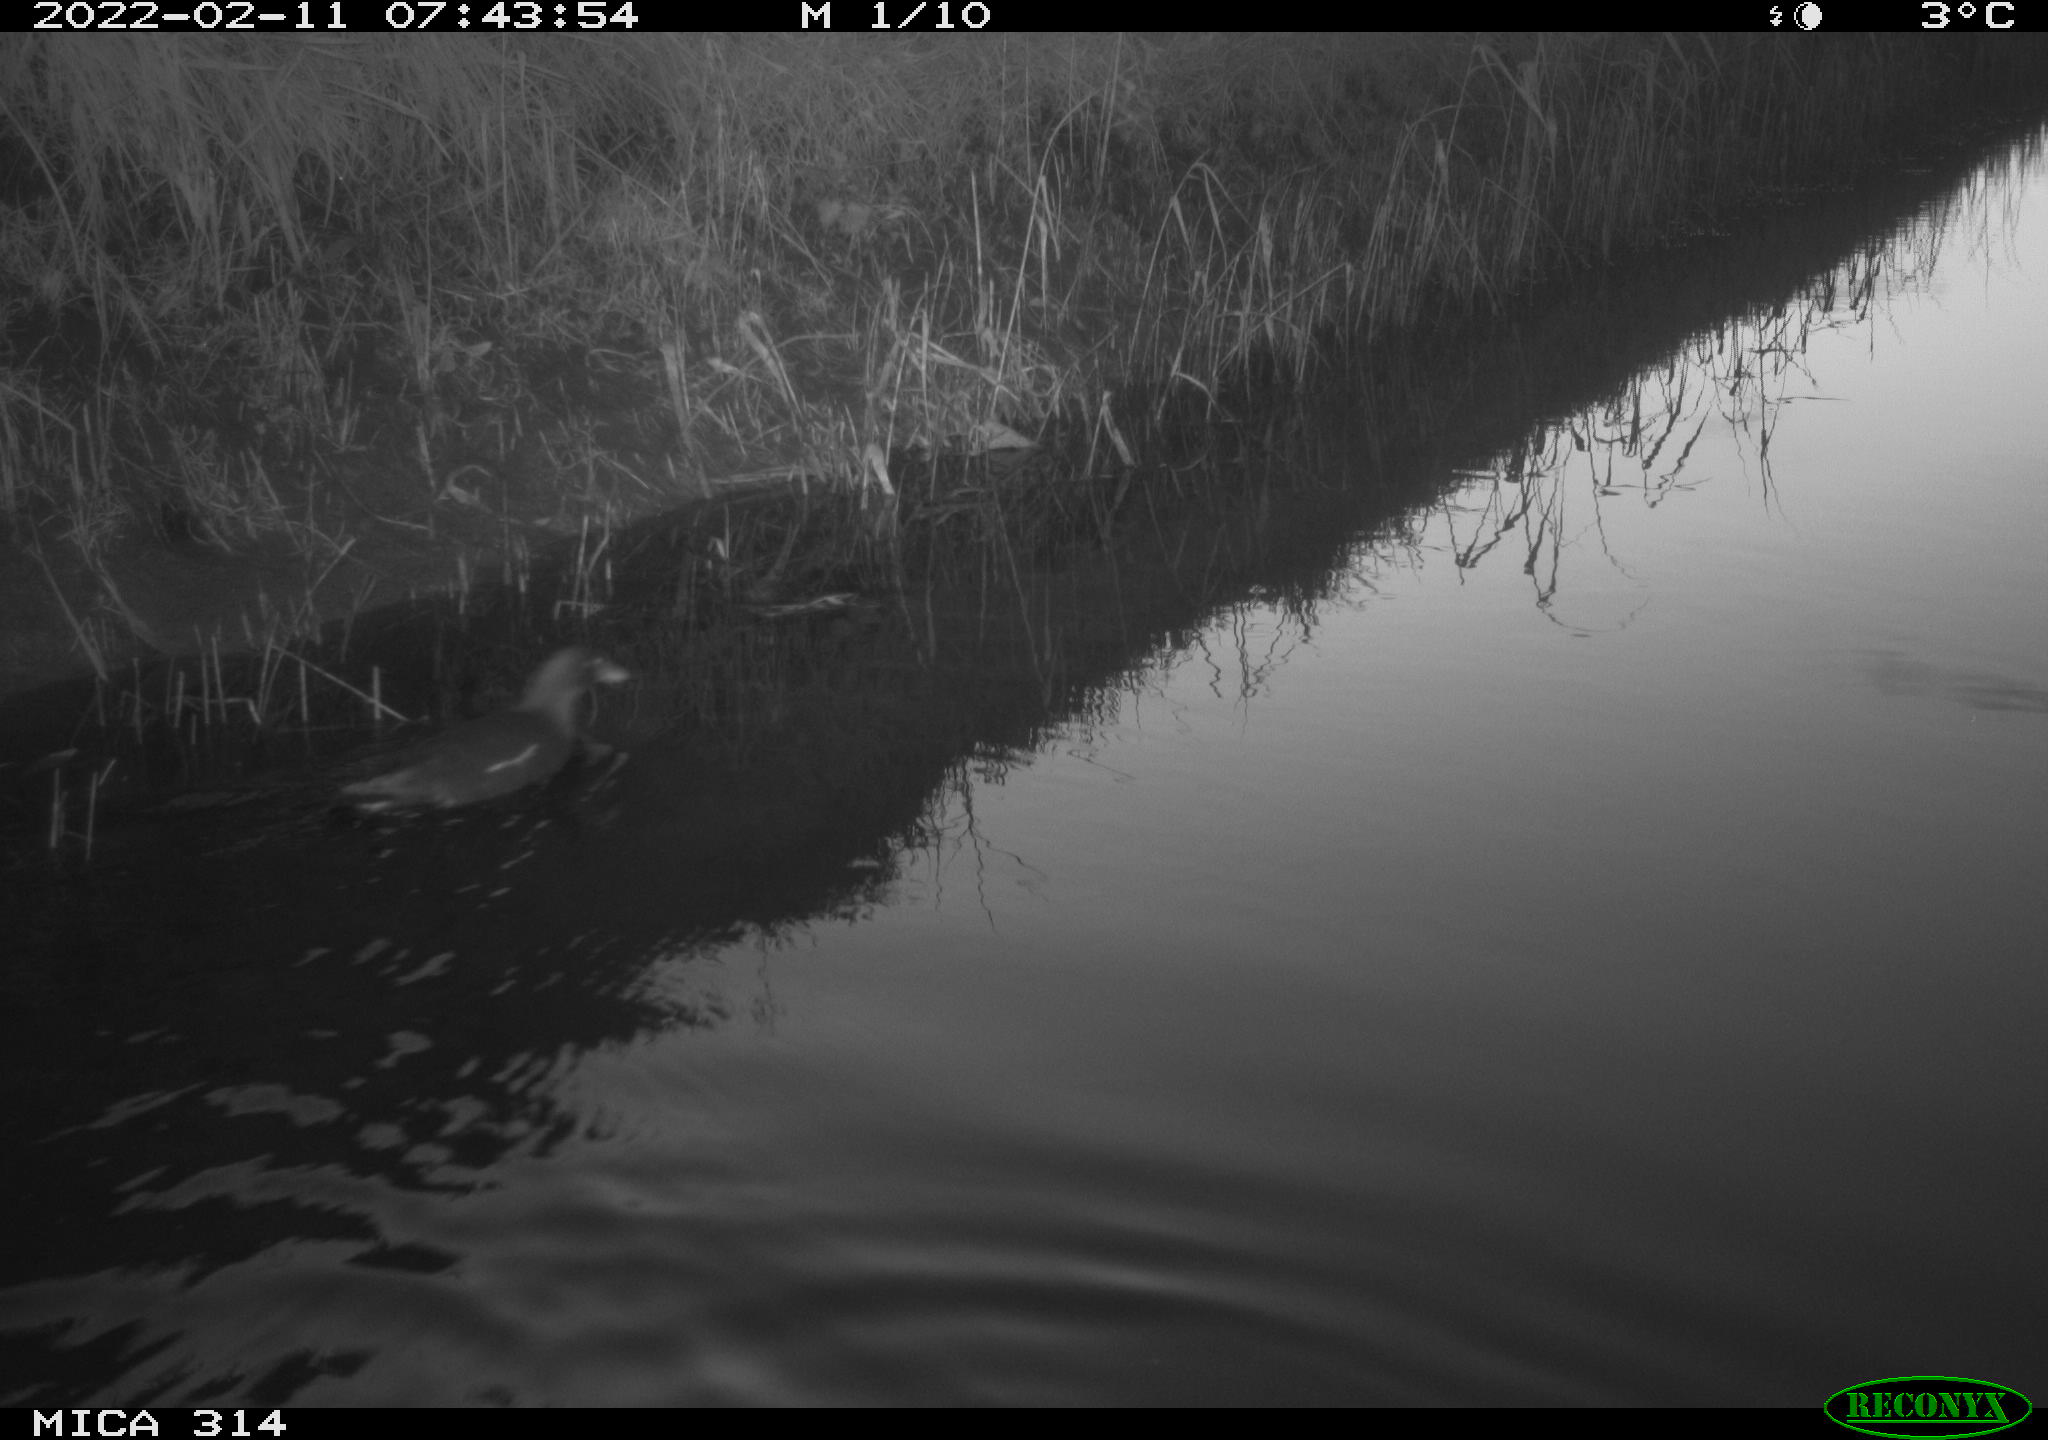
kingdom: Animalia
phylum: Chordata
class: Aves
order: Gruiformes
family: Rallidae
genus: Gallinula
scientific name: Gallinula chloropus
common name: Common moorhen
